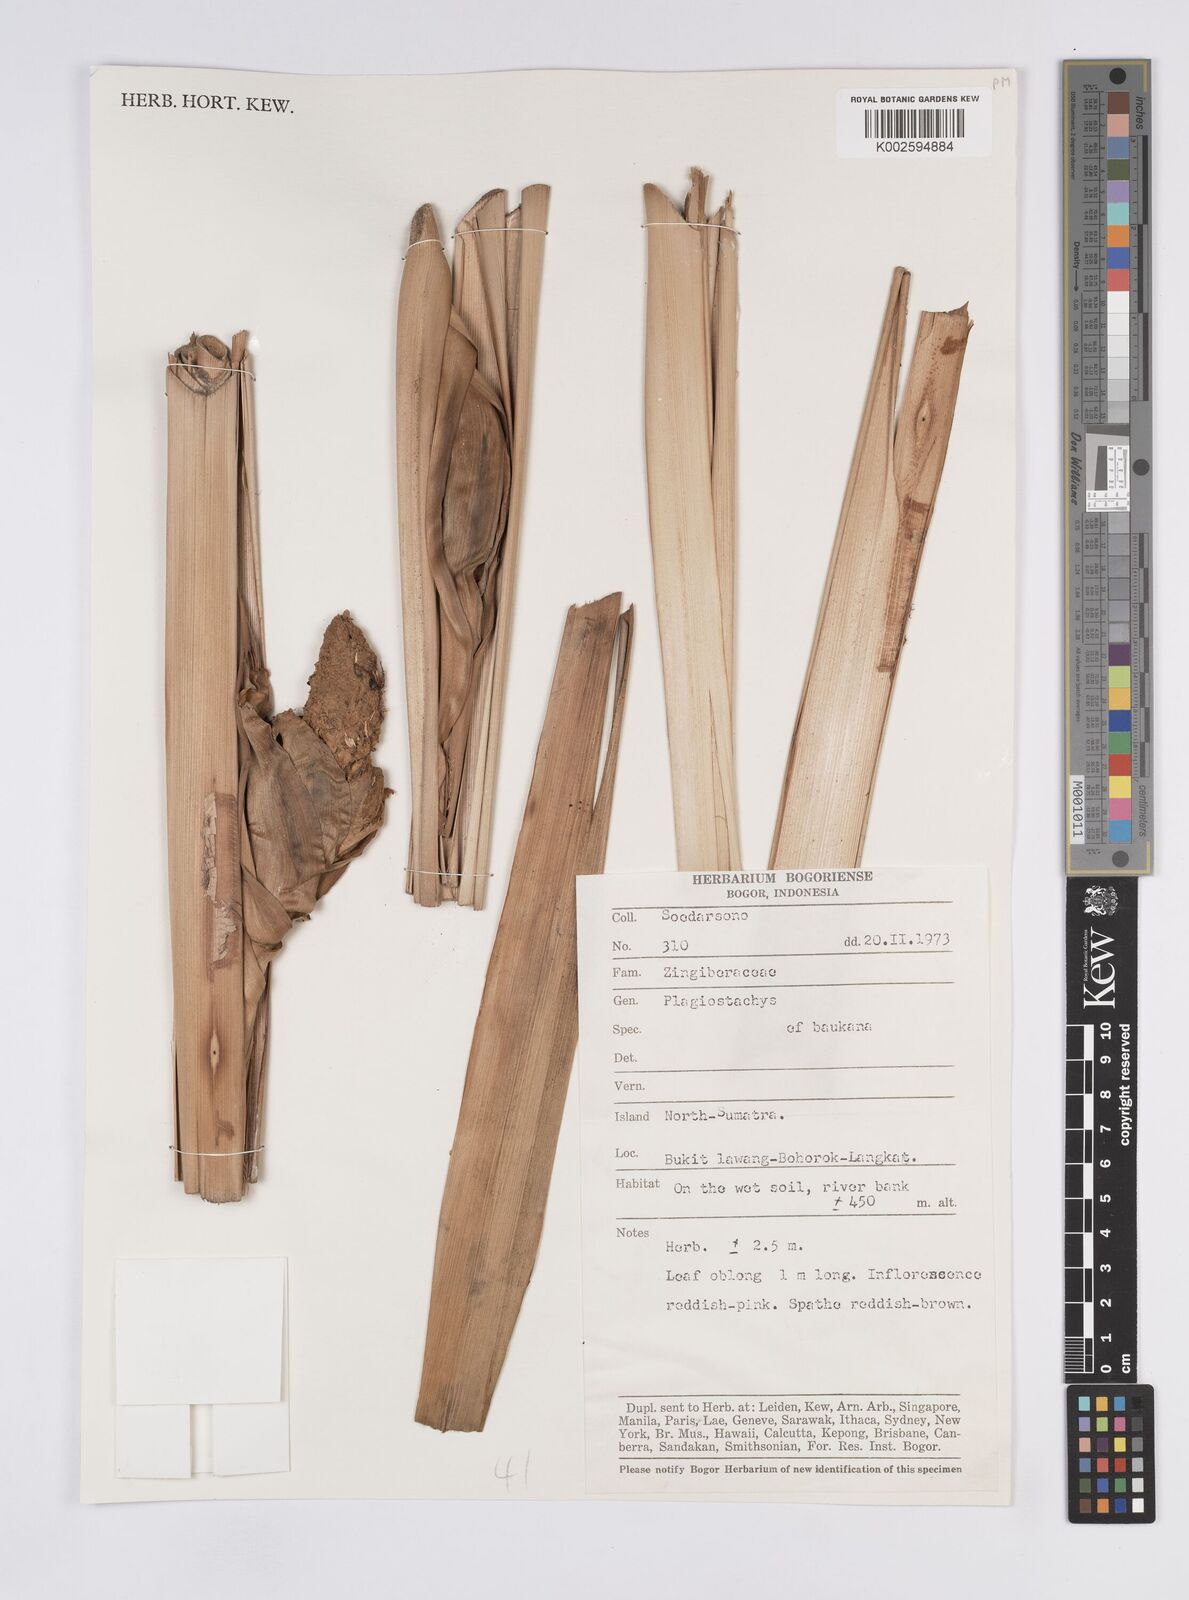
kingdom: Plantae
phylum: Tracheophyta
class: Liliopsida
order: Zingiberales
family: Zingiberaceae
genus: Plagiostachys
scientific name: Plagiostachys
